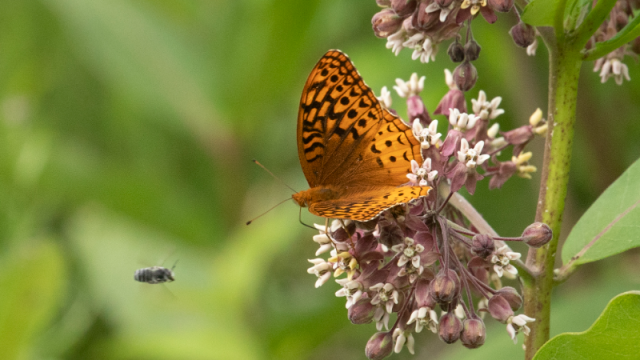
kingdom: Animalia
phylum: Arthropoda
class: Insecta
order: Lepidoptera
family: Nymphalidae
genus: Speyeria
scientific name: Speyeria cybele
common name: Great Spangled Fritillary
